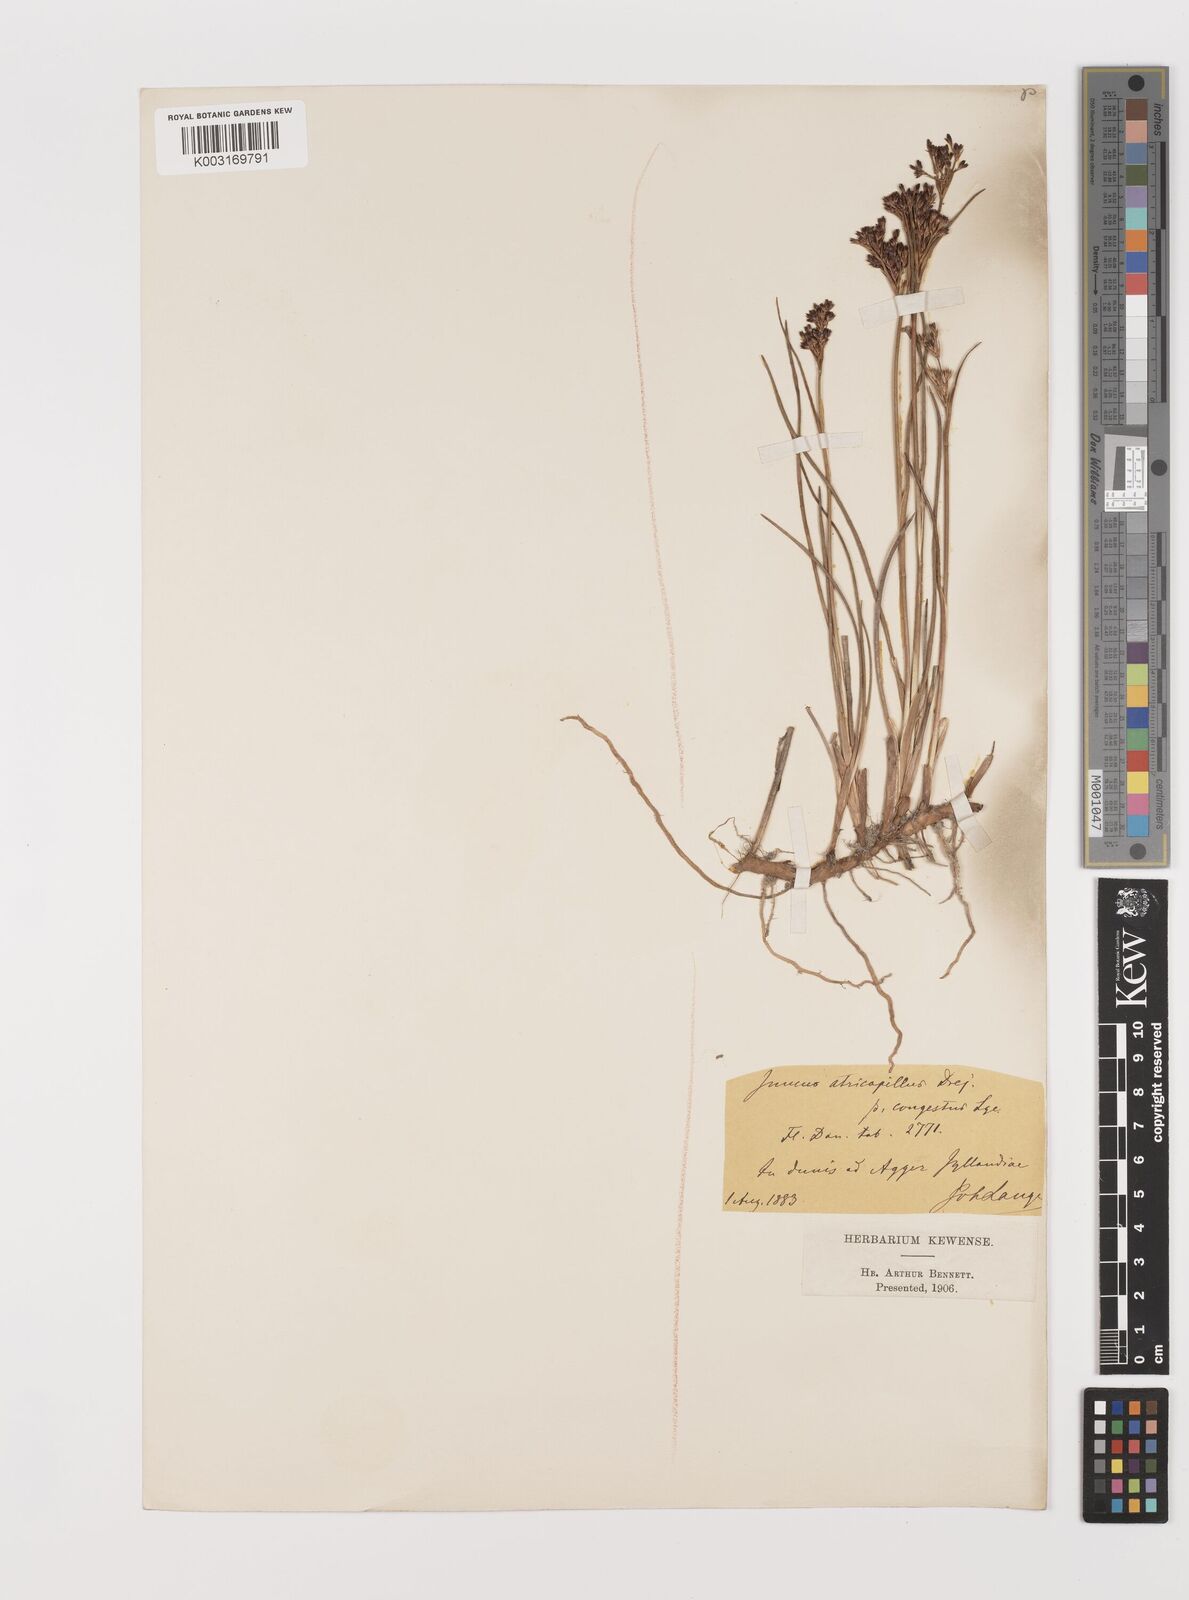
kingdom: Plantae
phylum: Tracheophyta
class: Liliopsida
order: Poales
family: Juncaceae
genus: Juncus
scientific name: Juncus anceps
